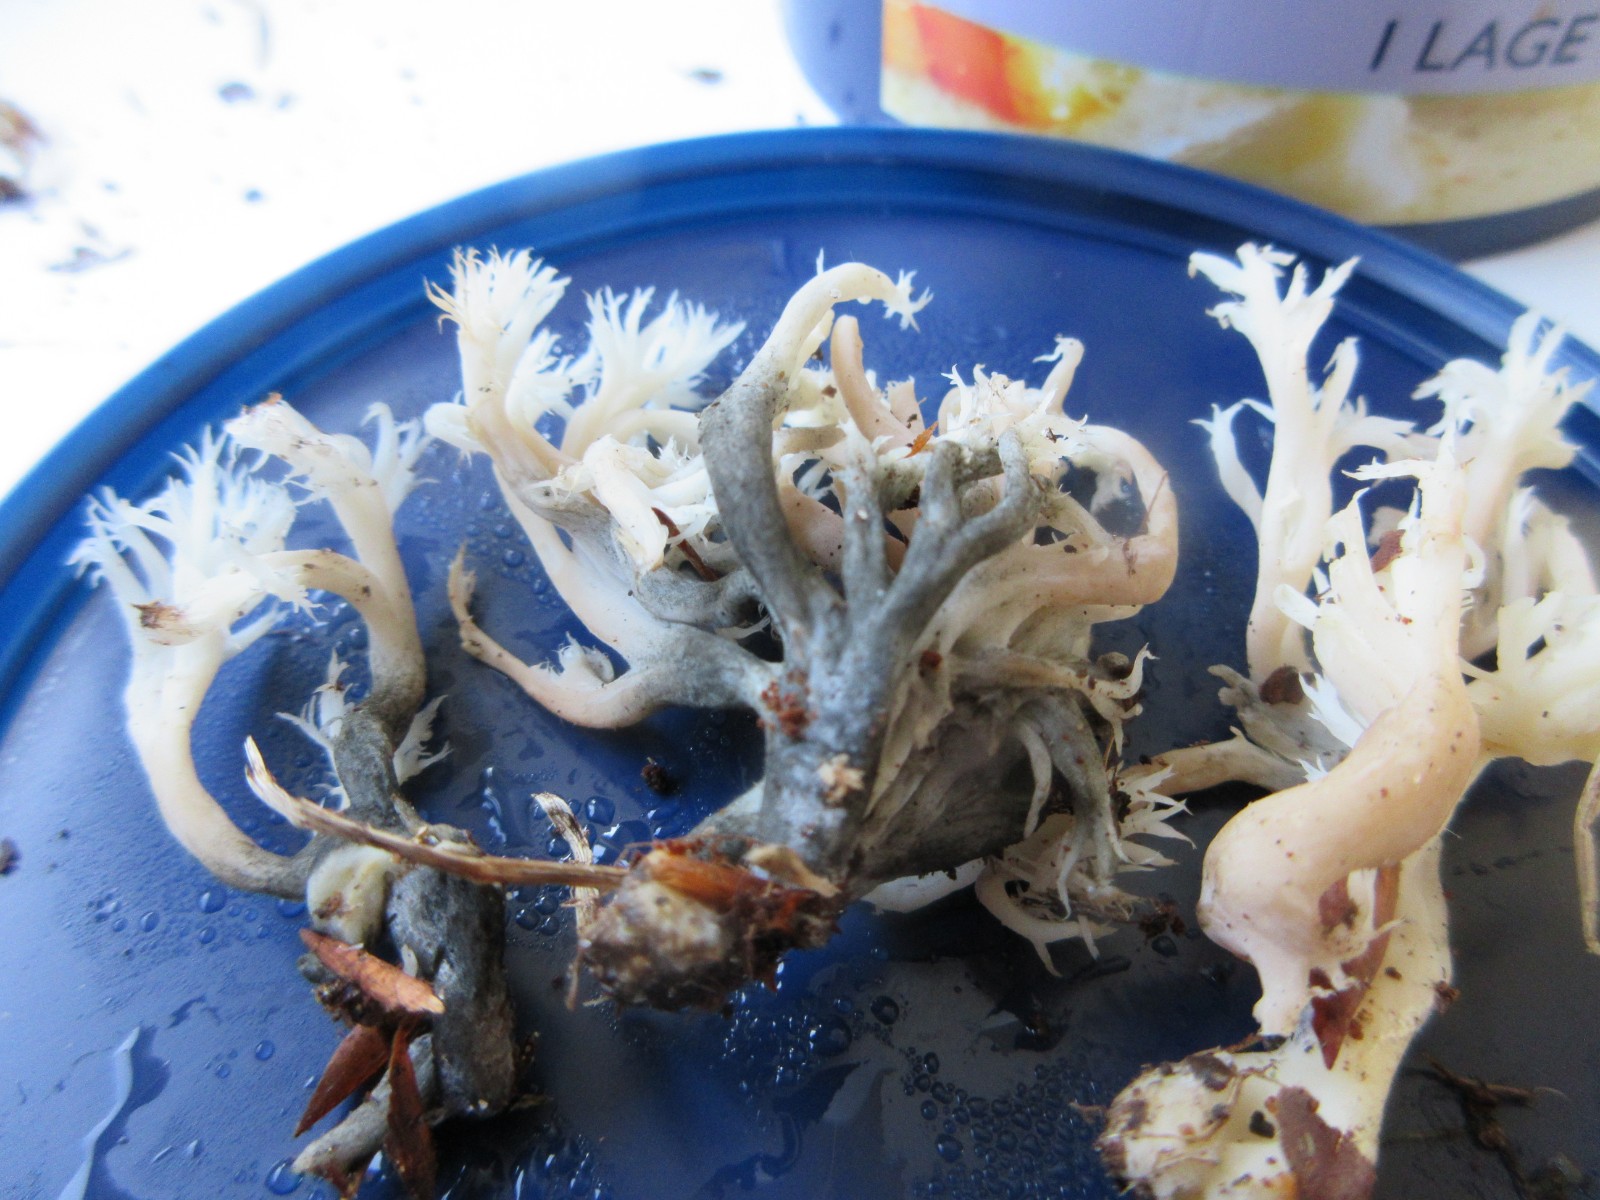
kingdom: Fungi
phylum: Ascomycota
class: Sordariomycetes
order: Sordariales
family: Helminthosphaeriaceae
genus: Helminthosphaeria
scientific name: Helminthosphaeria clavariarum
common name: trold-svampesnyltekerne
